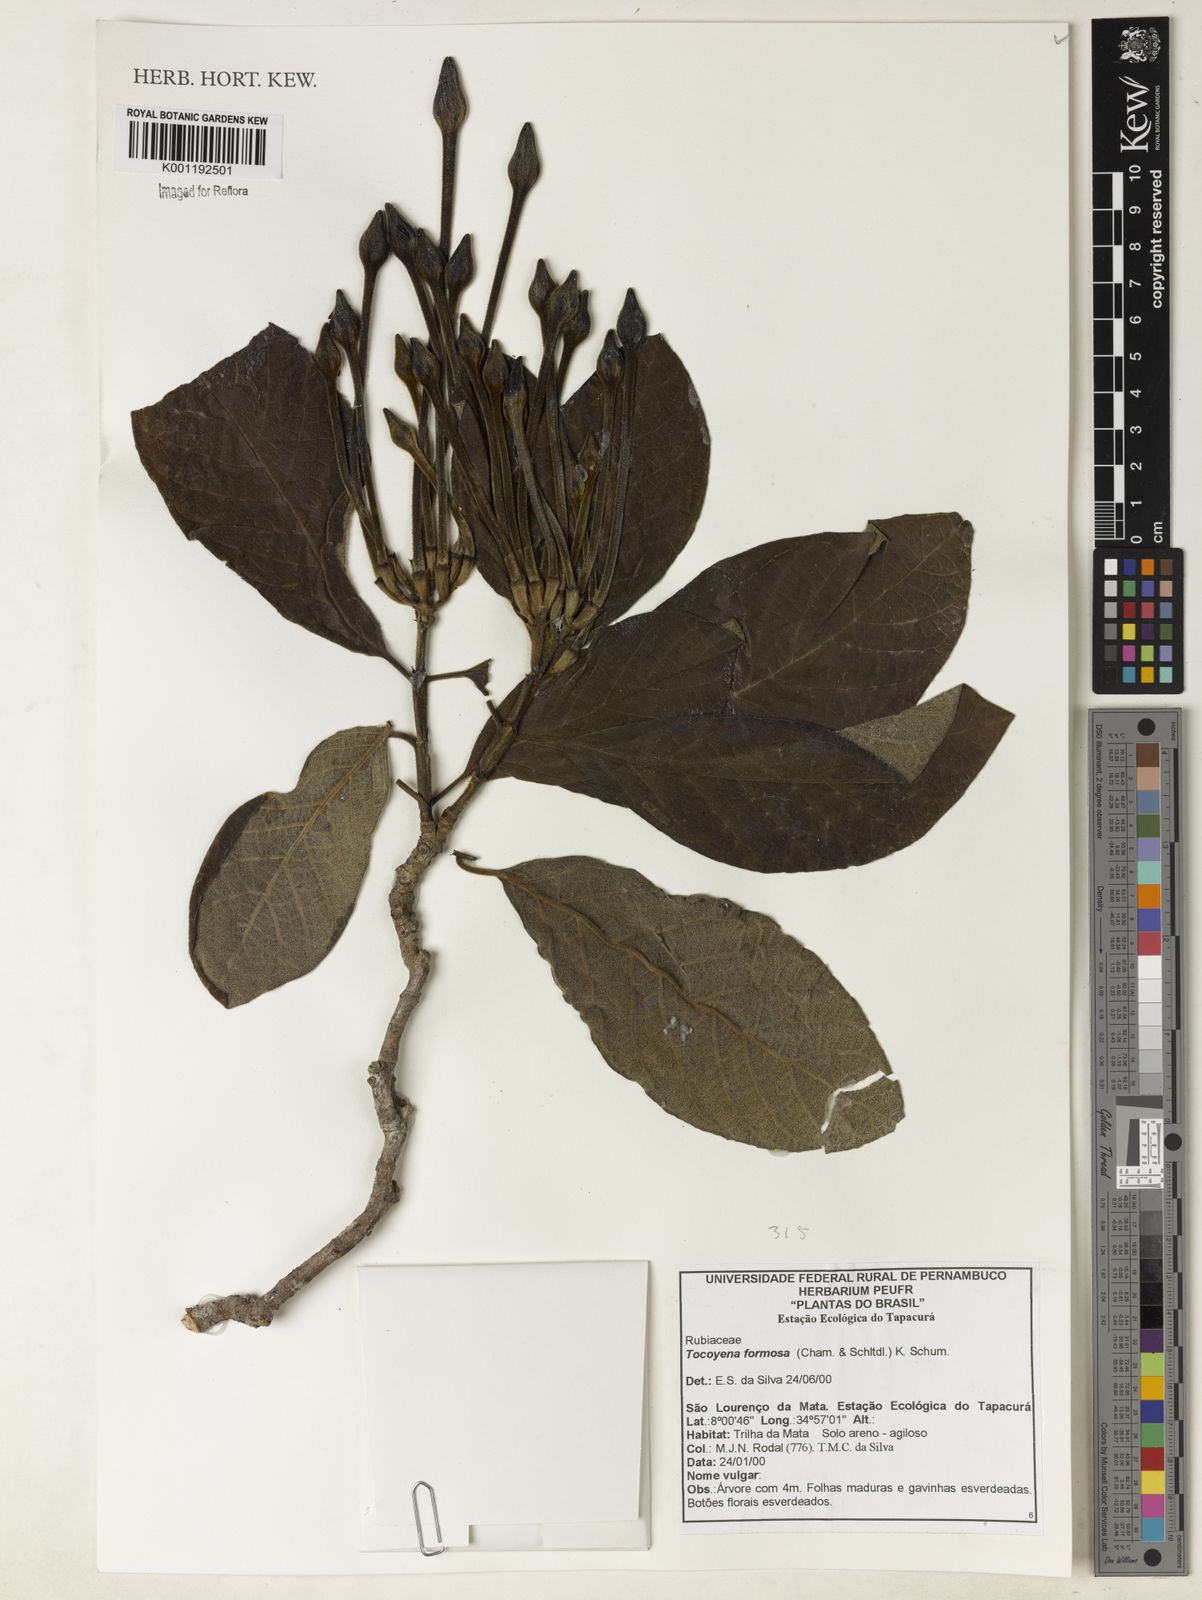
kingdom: Plantae
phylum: Tracheophyta
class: Magnoliopsida
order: Gentianales
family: Rubiaceae
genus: Tocoyena
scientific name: Tocoyena formosa
